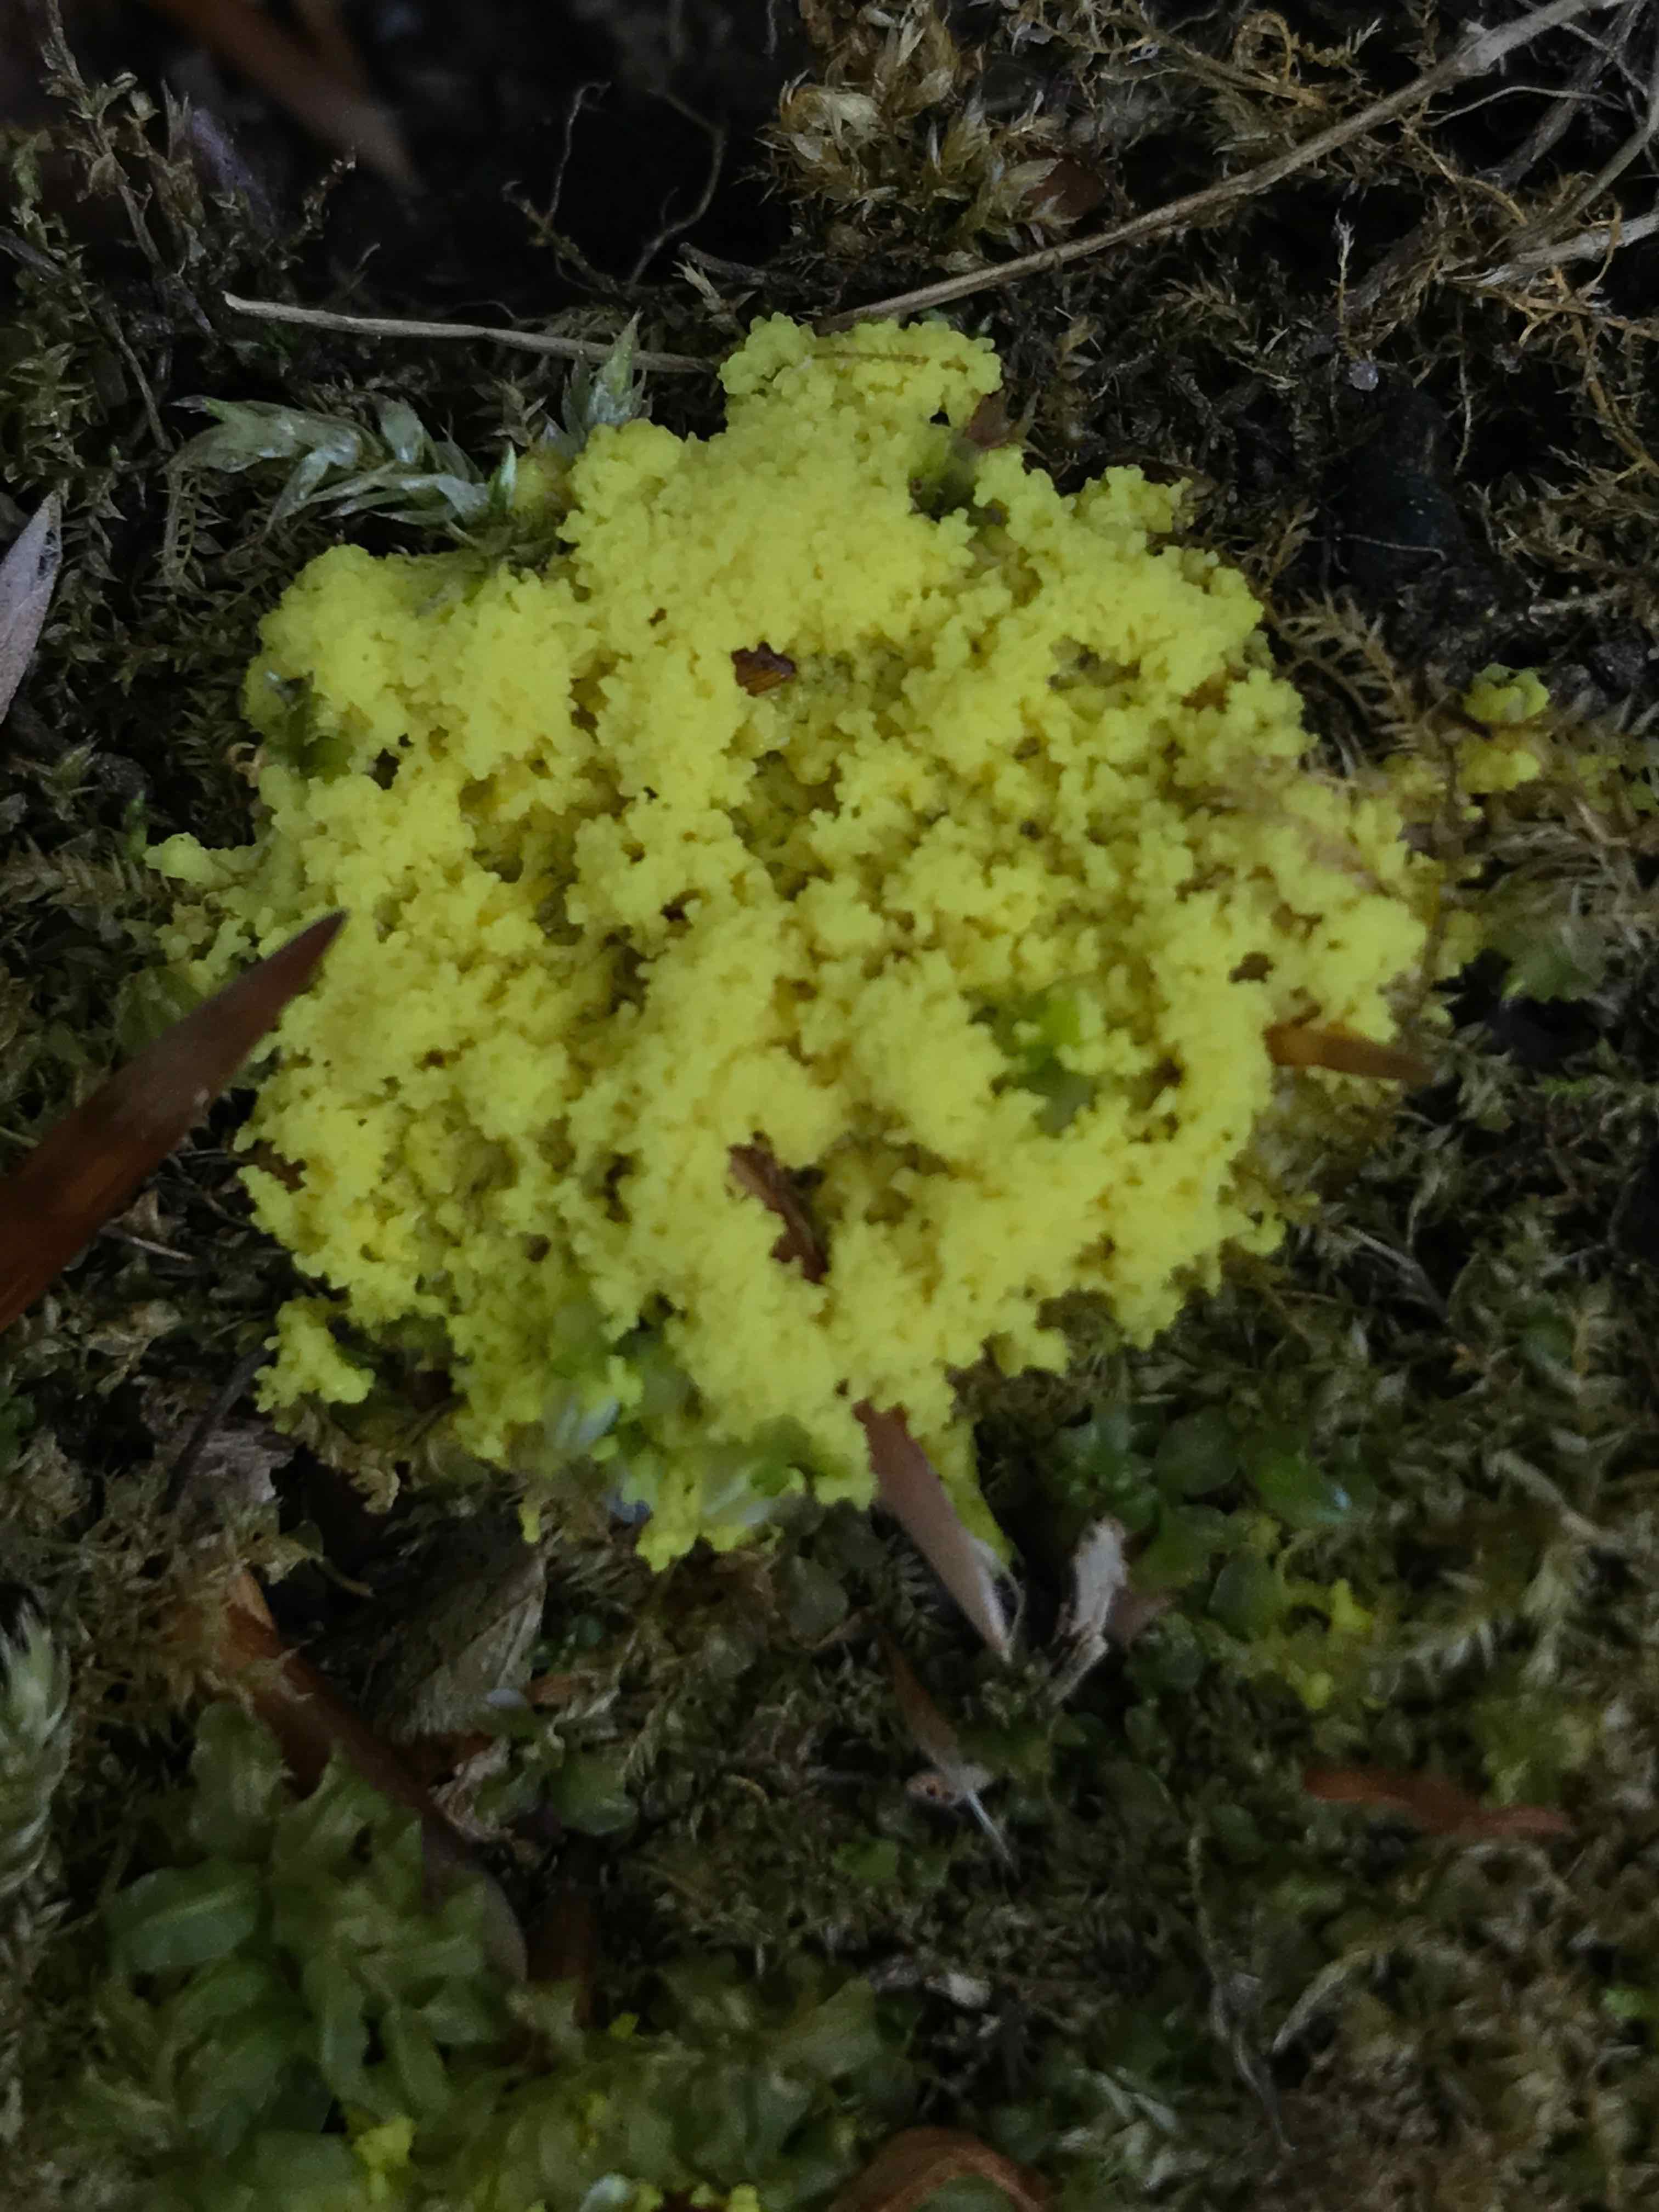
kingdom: Protozoa
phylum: Mycetozoa
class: Myxomycetes
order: Physarales
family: Physaraceae
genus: Fuligo
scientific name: Fuligo septica
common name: gul troldsmør
